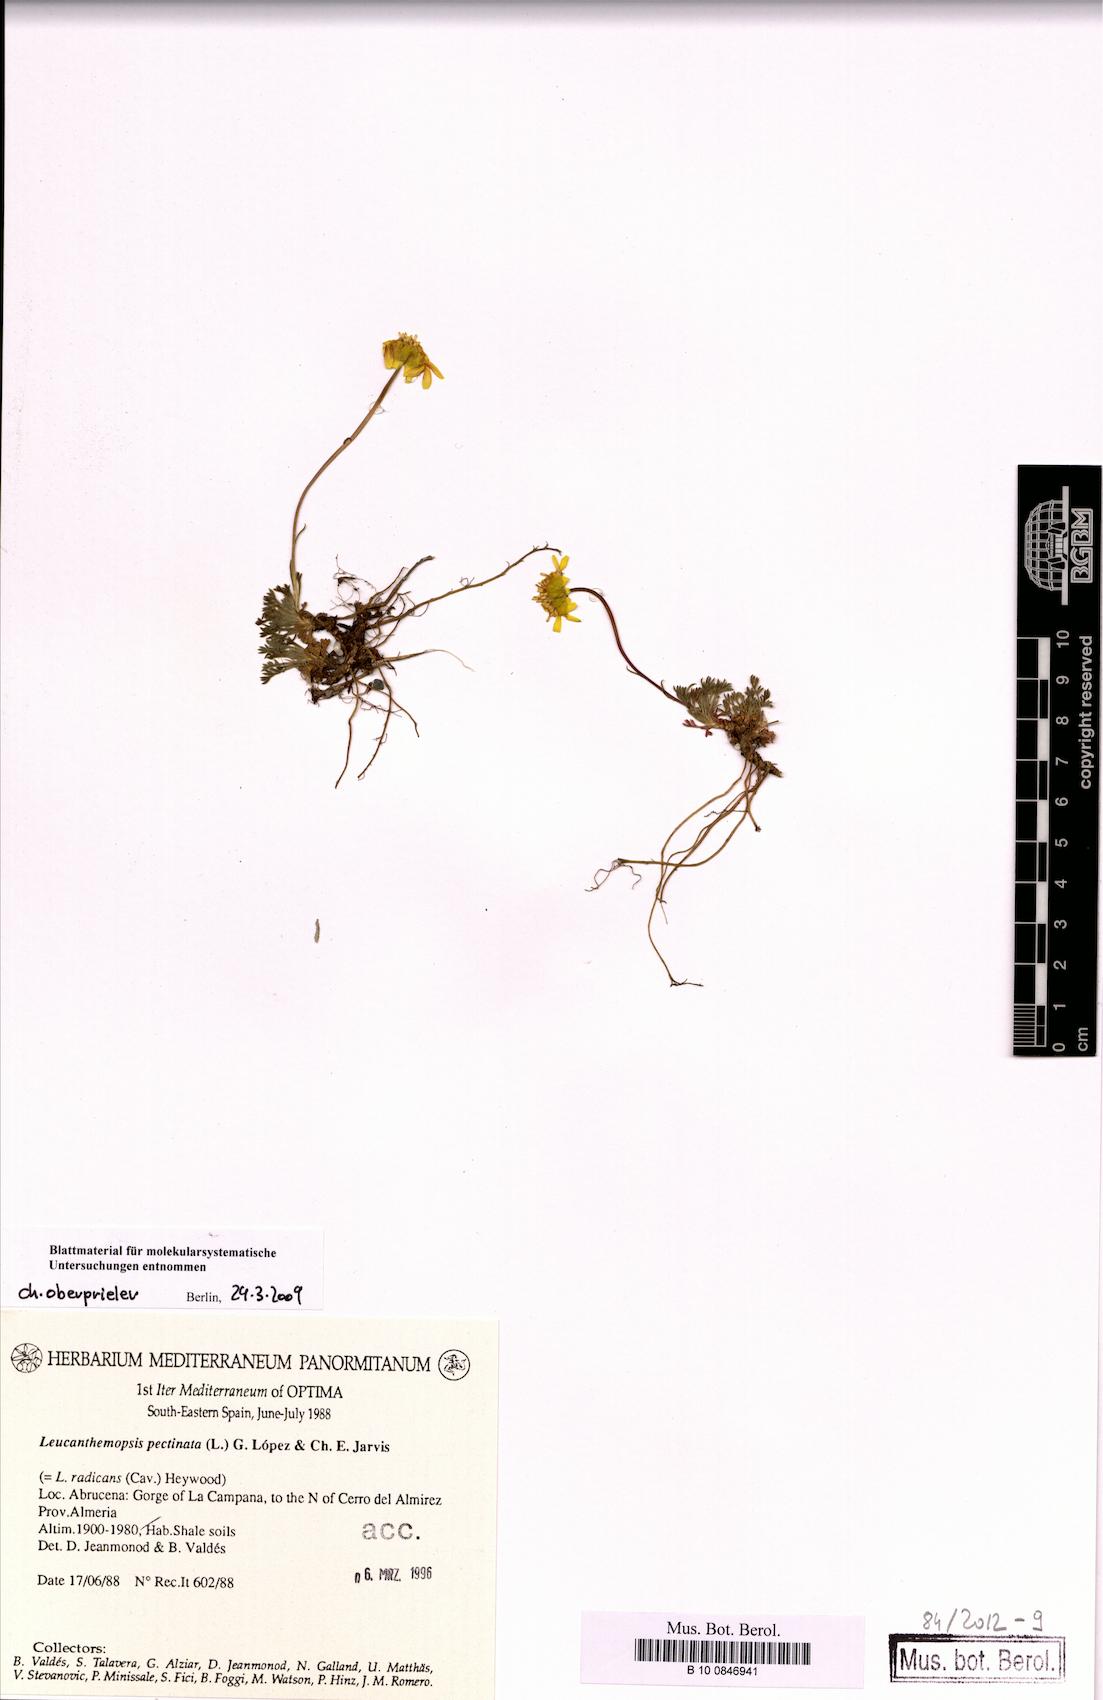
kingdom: Plantae
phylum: Tracheophyta
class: Magnoliopsida
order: Asterales
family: Asteraceae
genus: Leucanthemopsis
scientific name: Leucanthemopsis pectinata
